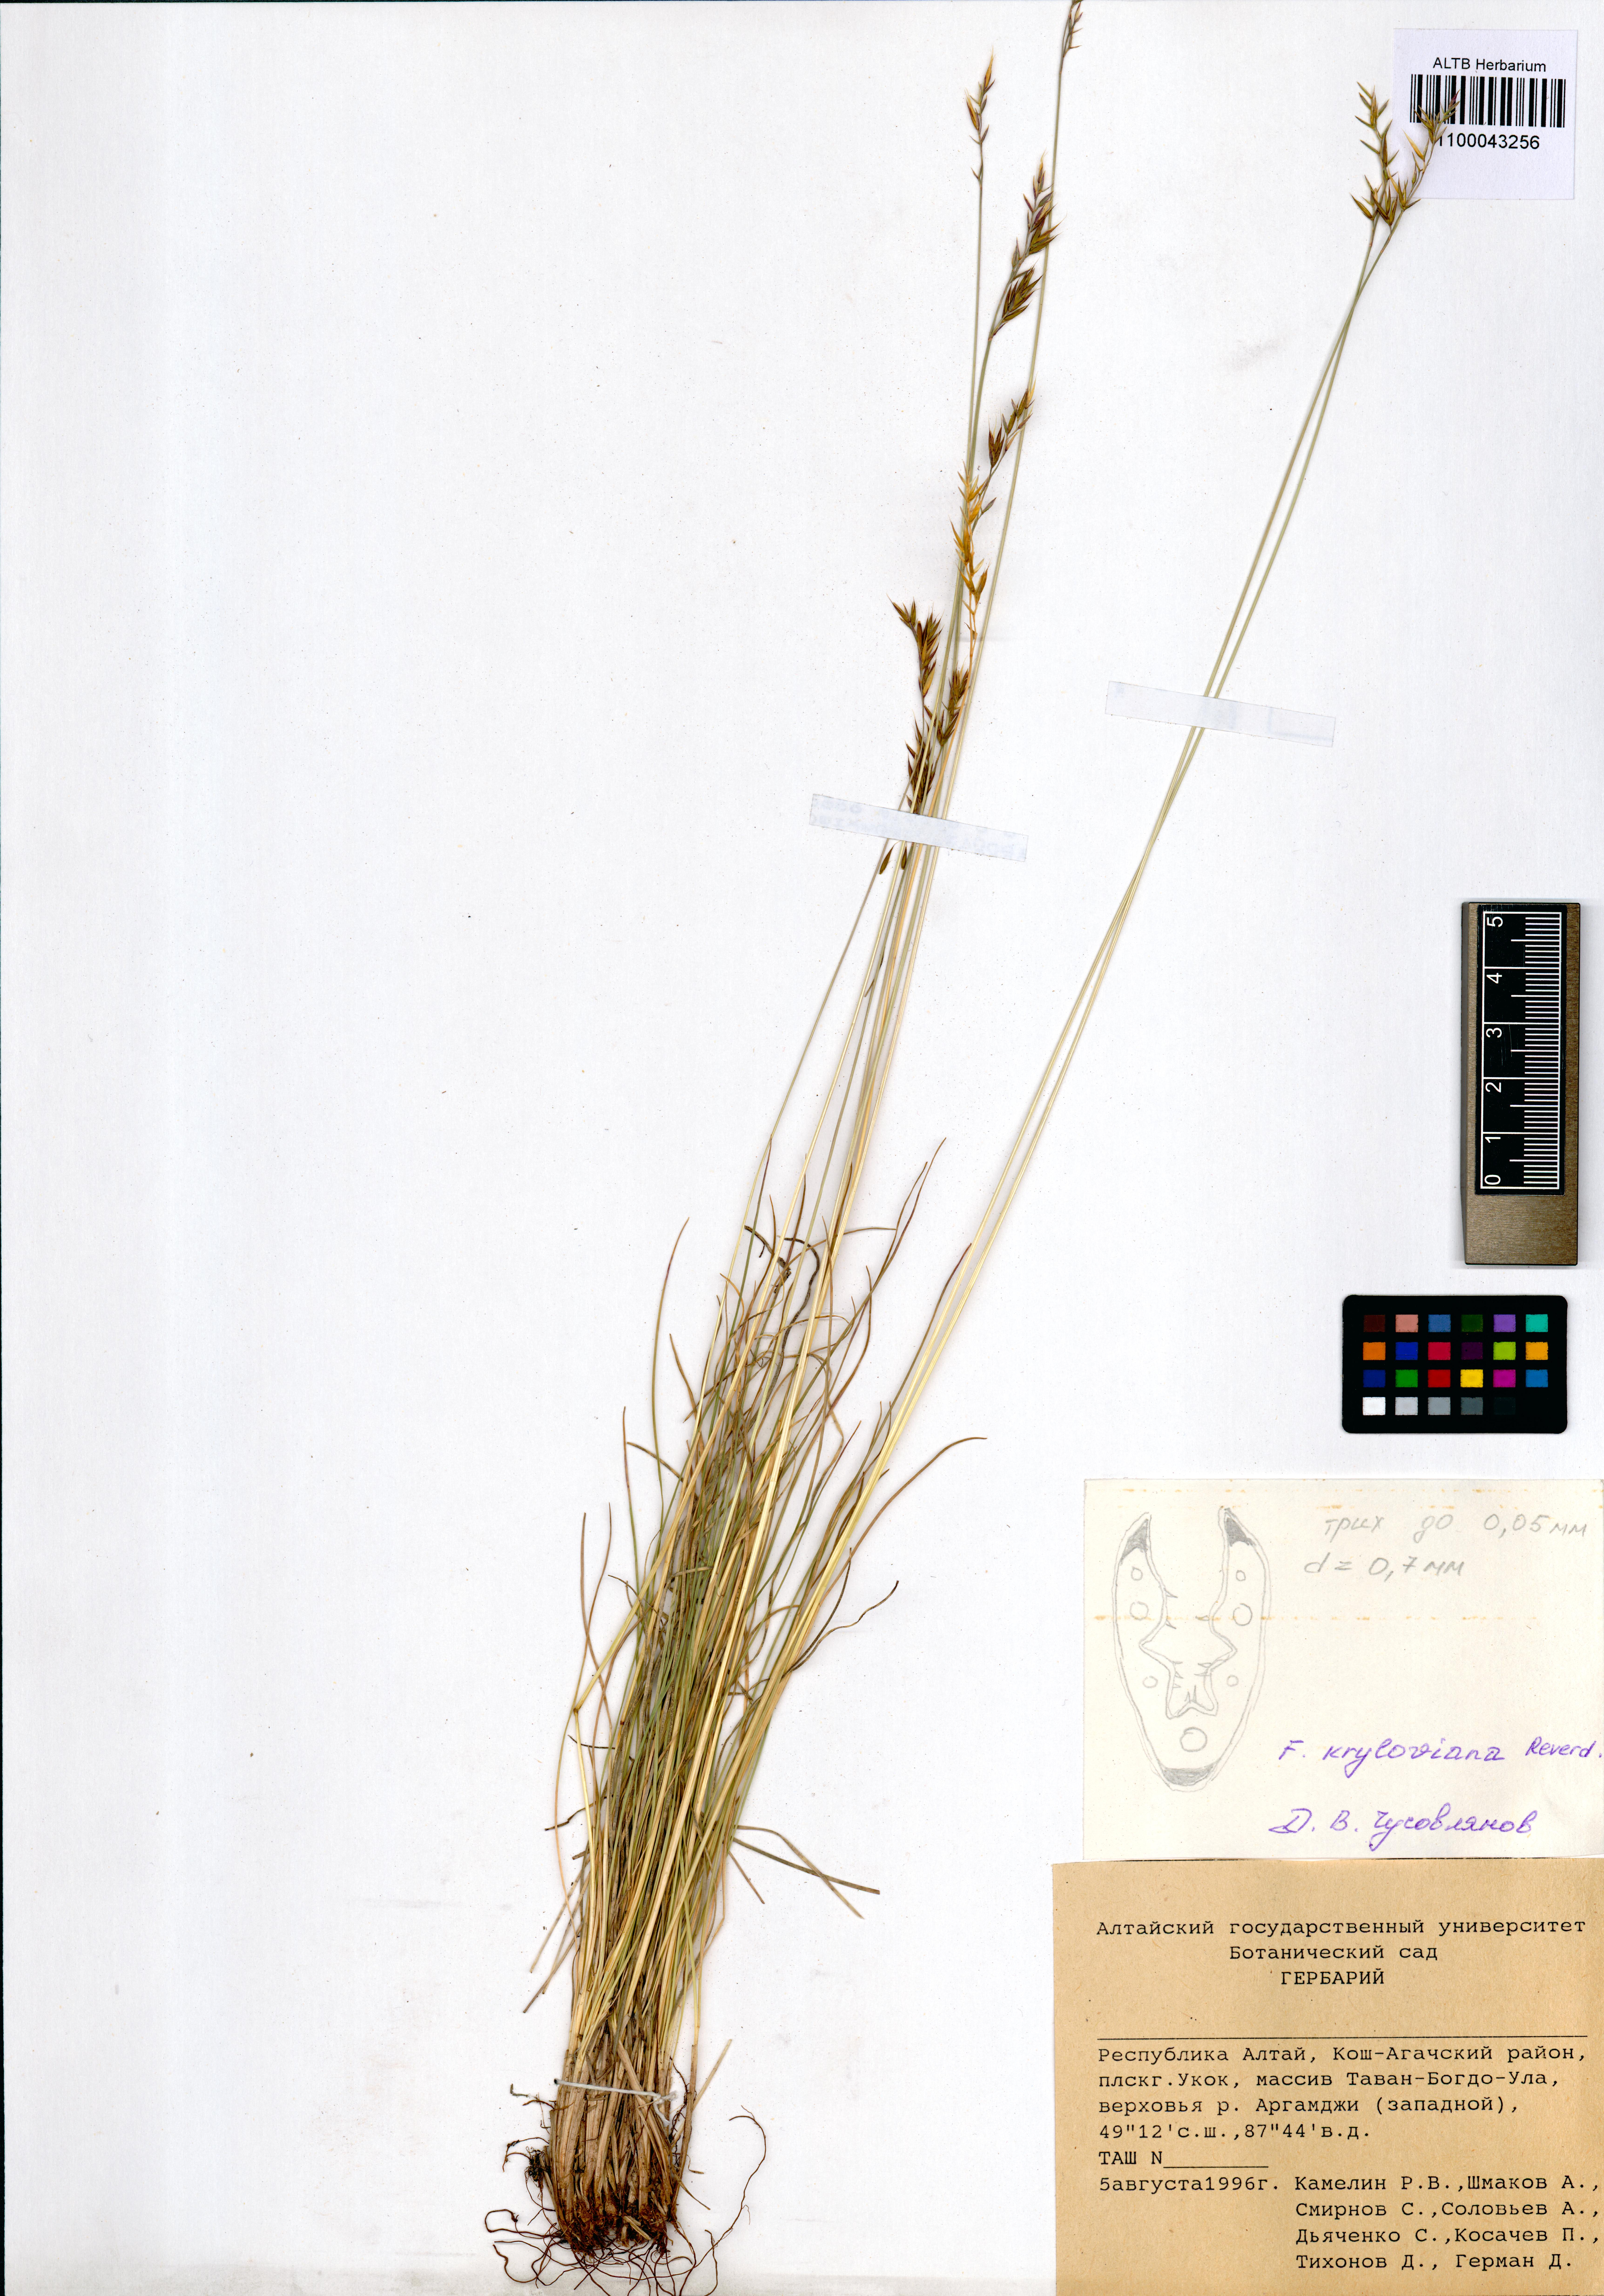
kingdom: Plantae
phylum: Tracheophyta
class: Liliopsida
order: Poales
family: Poaceae
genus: Festuca
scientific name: Festuca kryloviana
